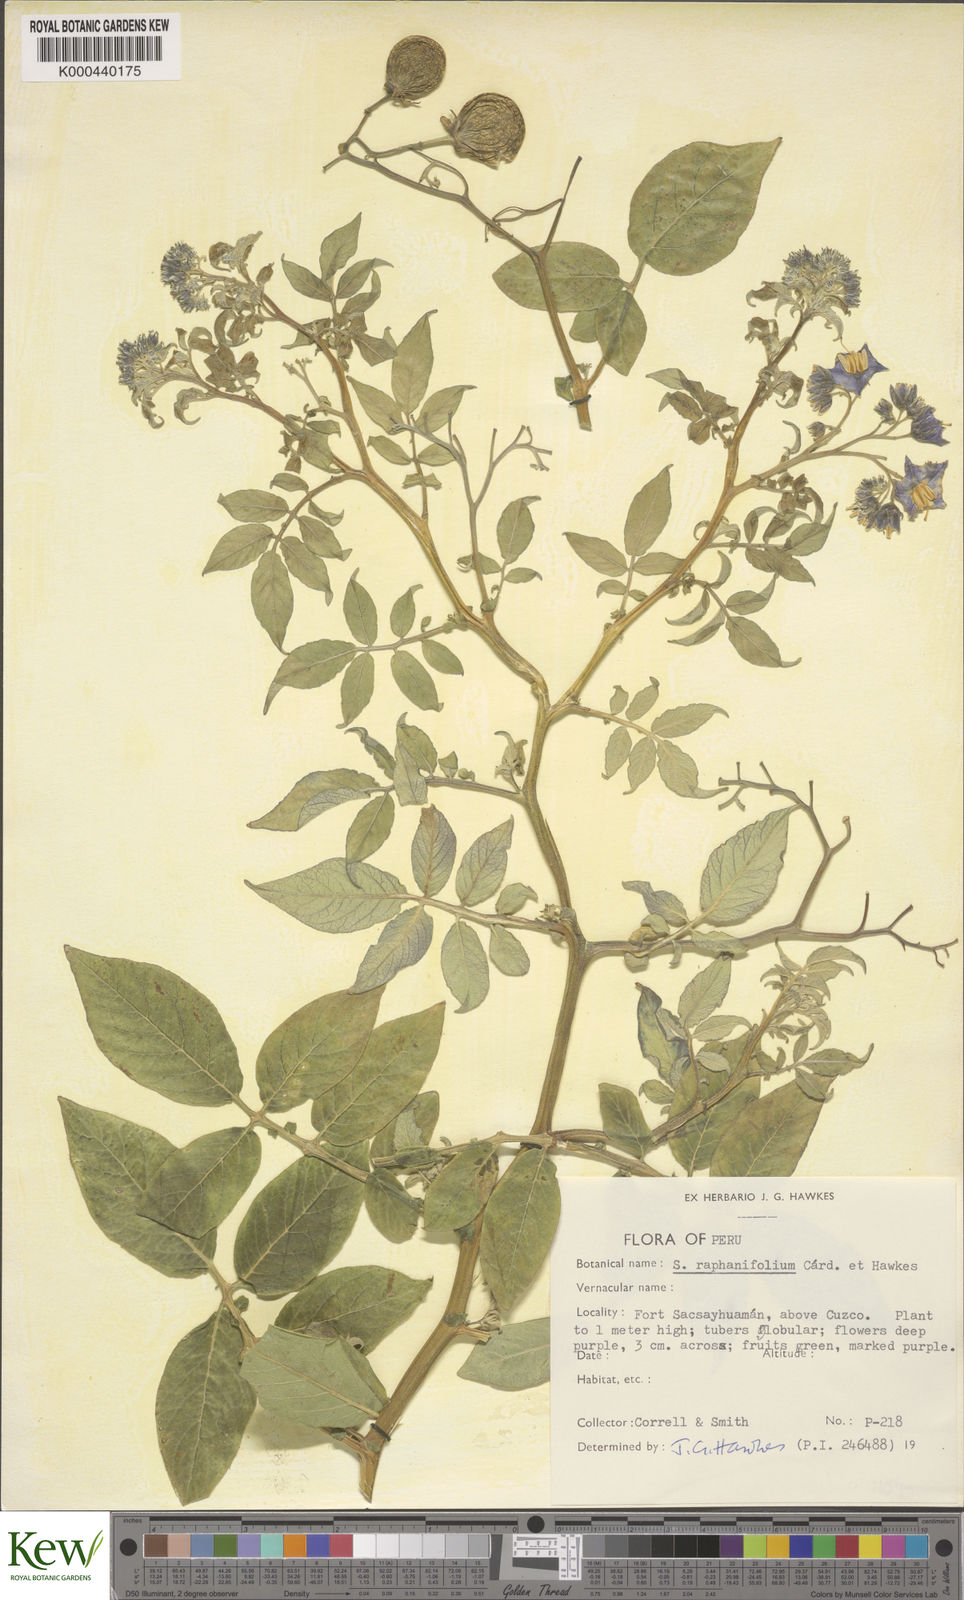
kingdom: Plantae
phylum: Tracheophyta
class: Magnoliopsida
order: Solanales
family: Solanaceae
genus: Solanum
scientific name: Solanum raphanifolium
